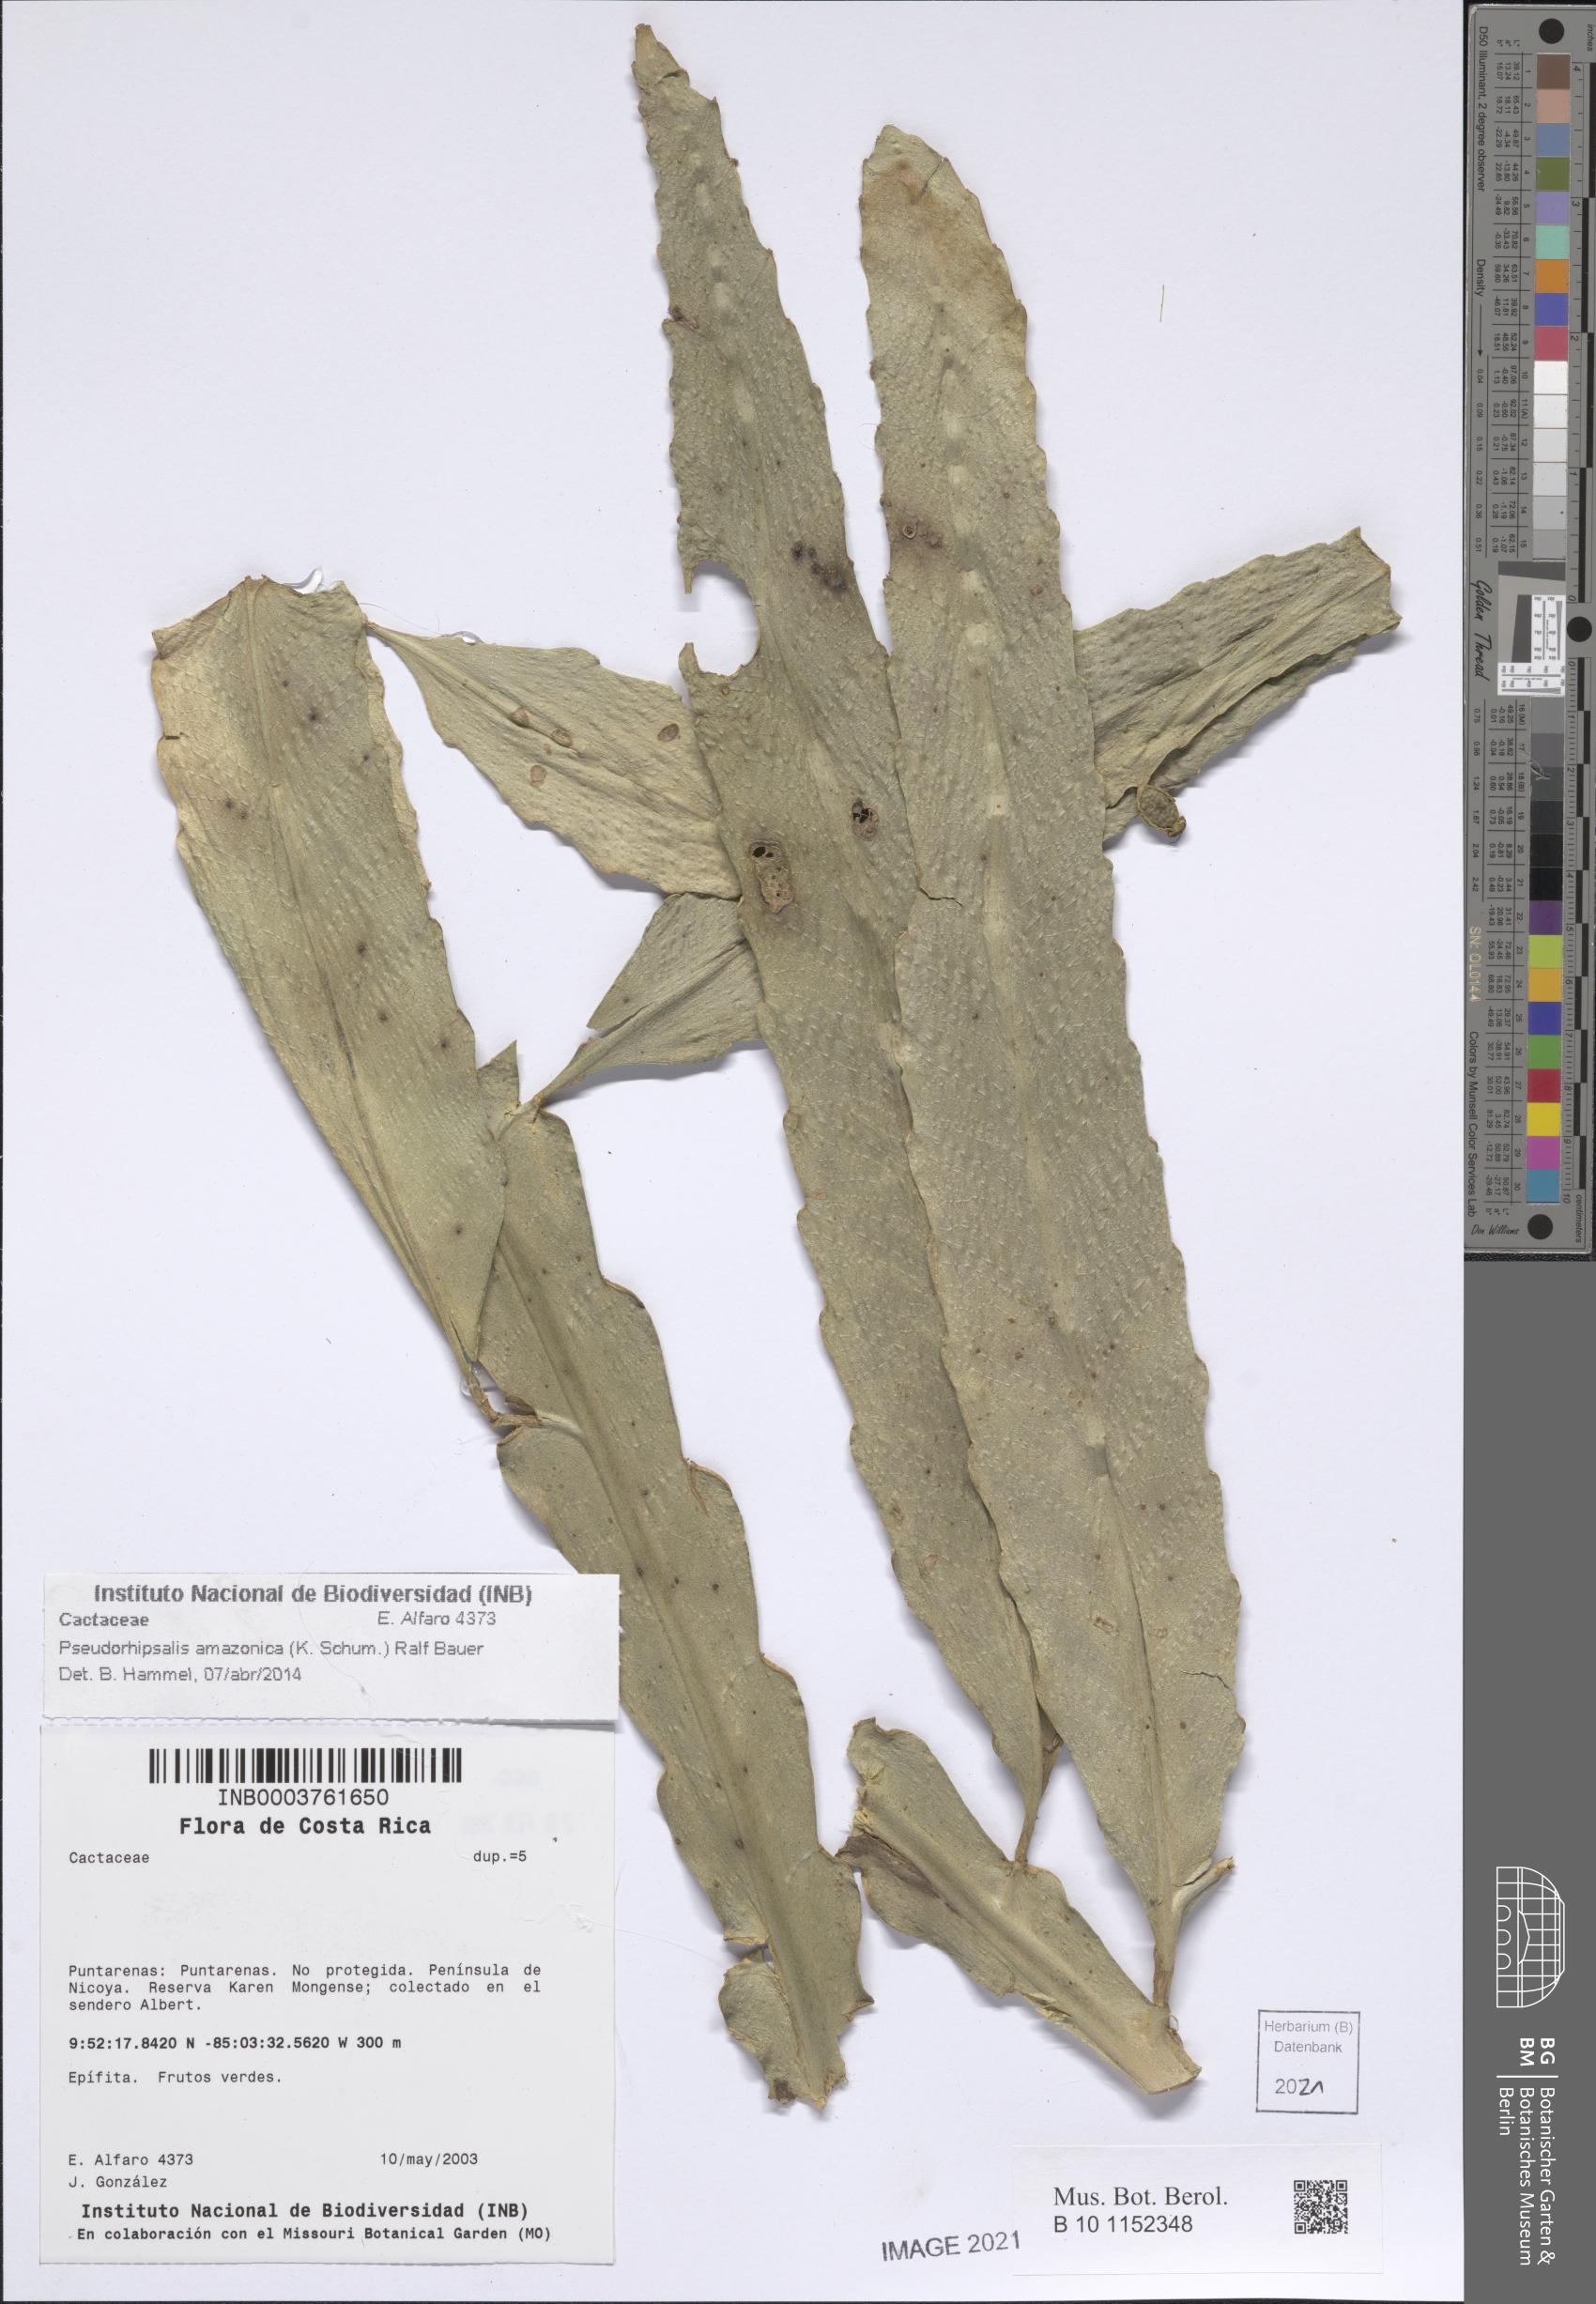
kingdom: Plantae
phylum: Tracheophyta
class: Magnoliopsida
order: Caryophyllales
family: Cactaceae
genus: Pseudorhipsalis
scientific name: Pseudorhipsalis amazonica
